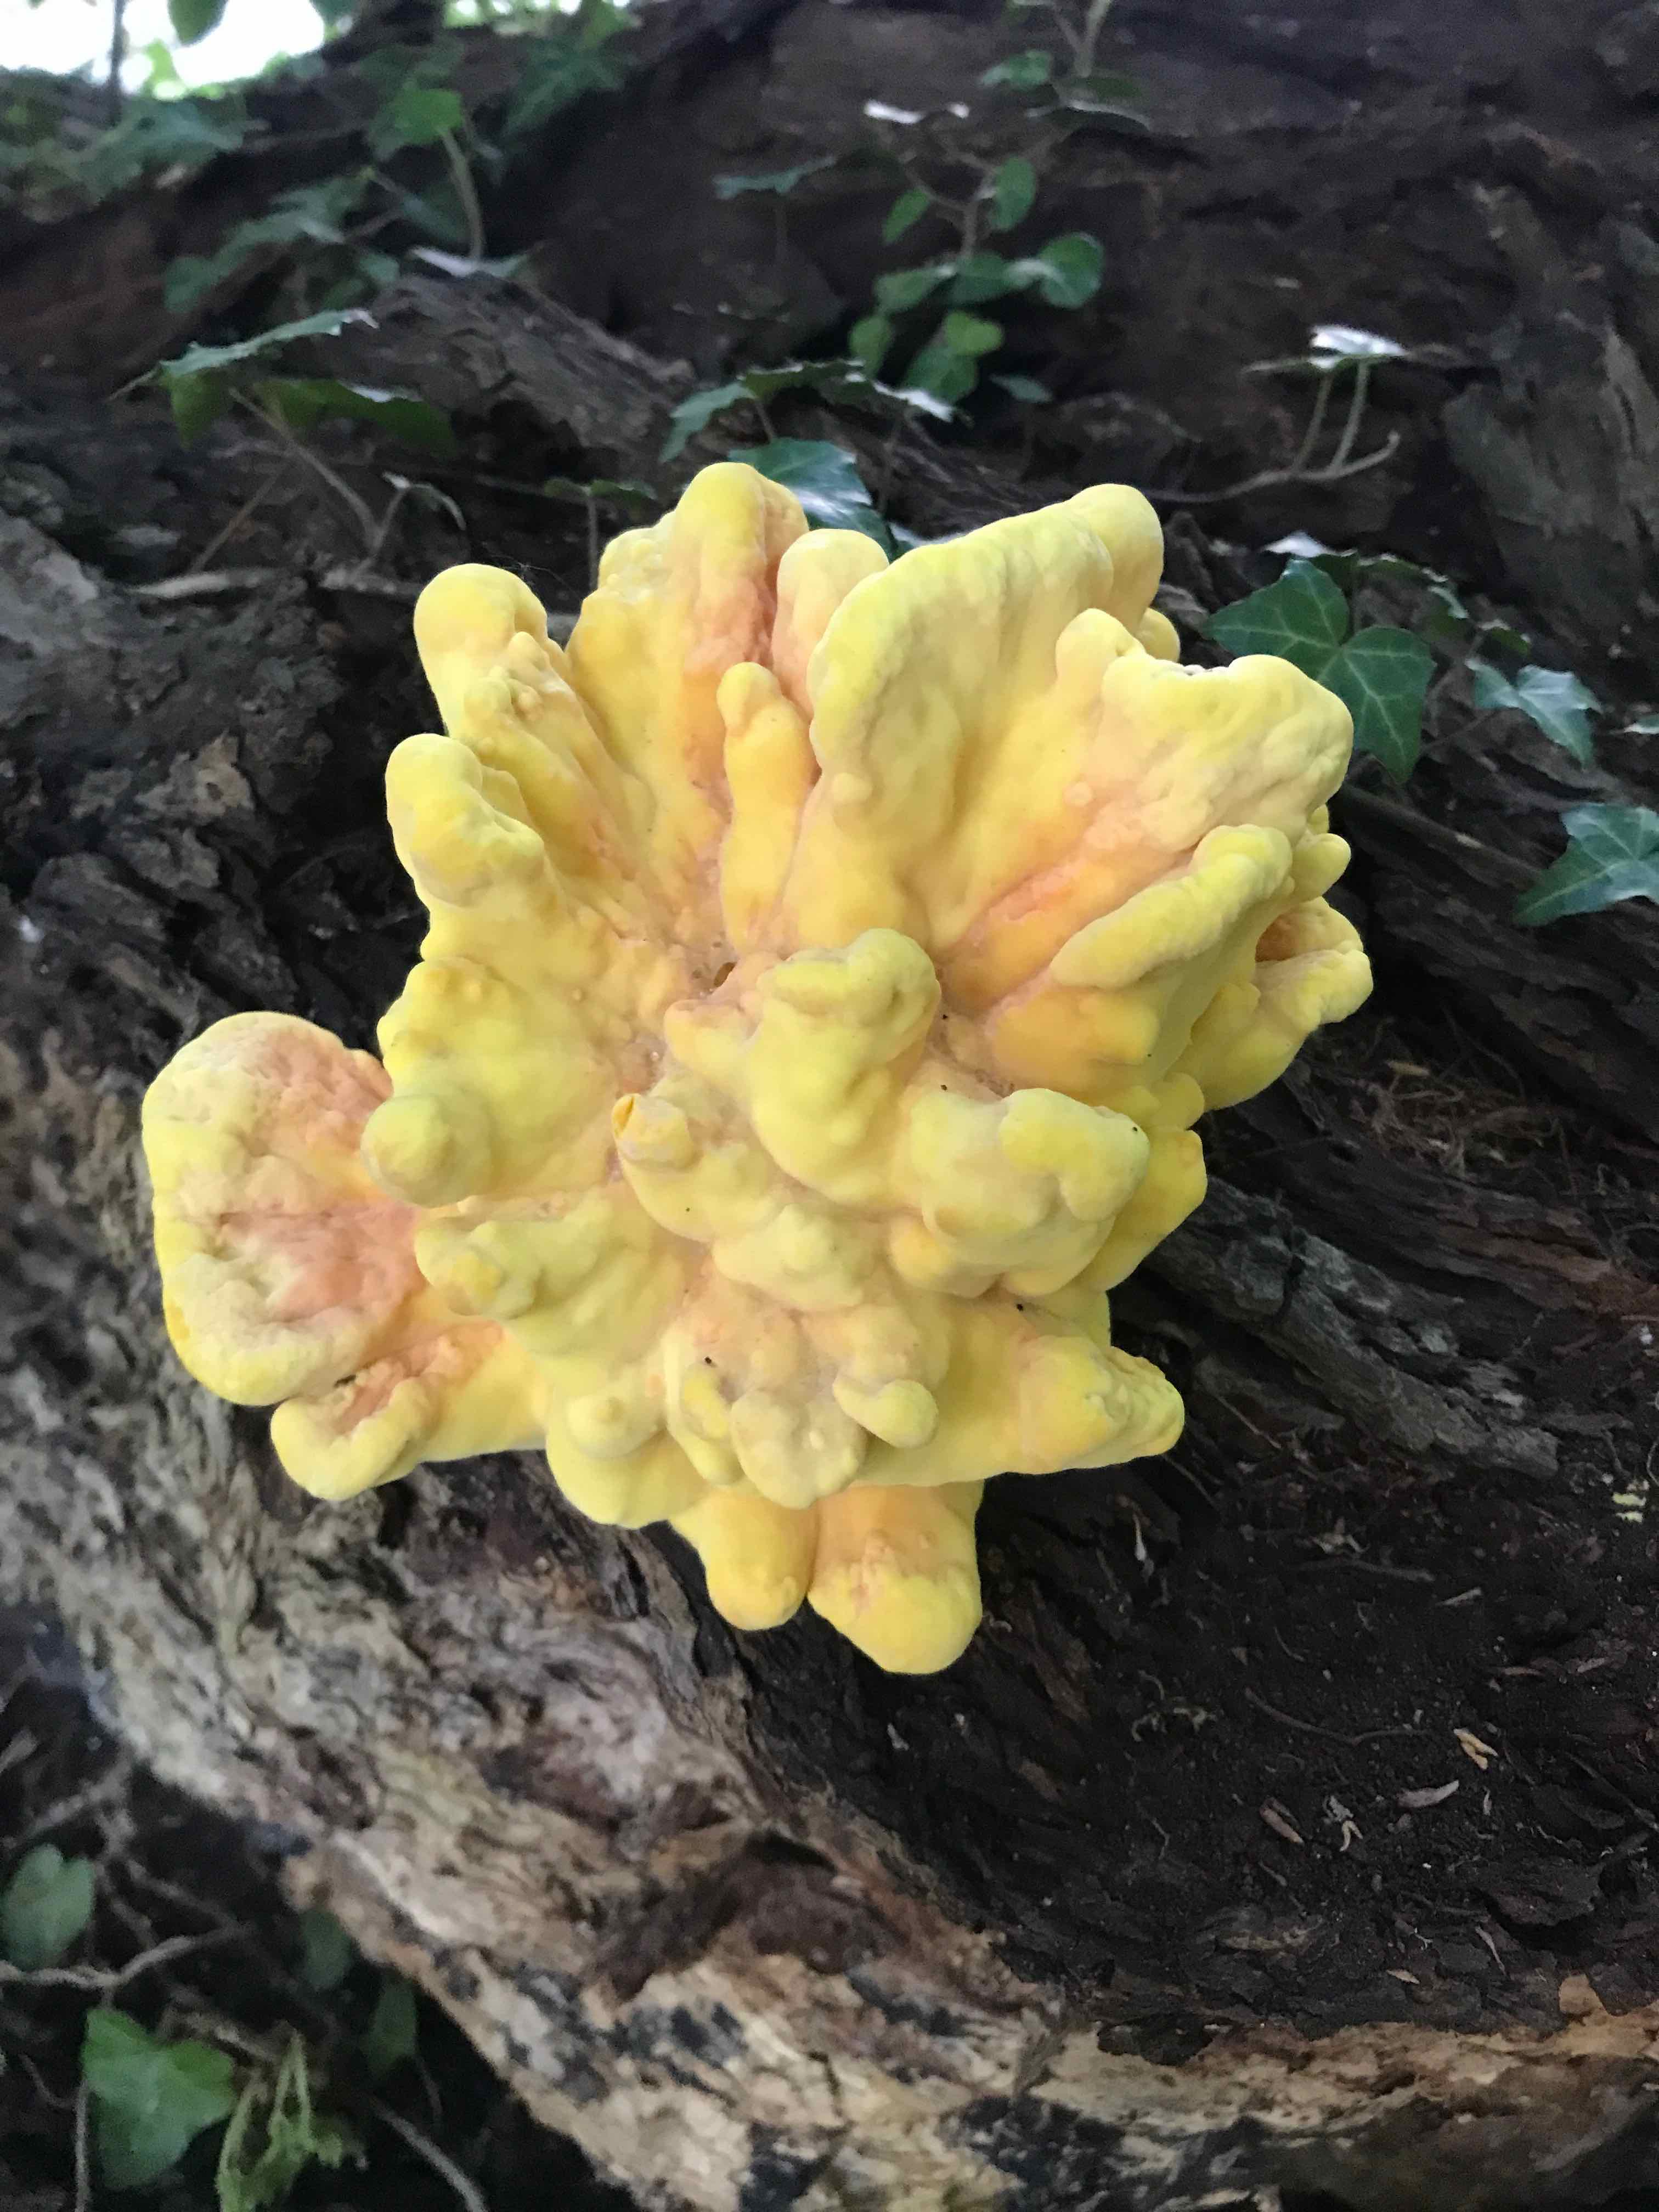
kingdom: Fungi
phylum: Basidiomycota
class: Agaricomycetes
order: Polyporales
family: Laetiporaceae
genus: Laetiporus
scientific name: Laetiporus sulphureus
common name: svovlporesvamp
